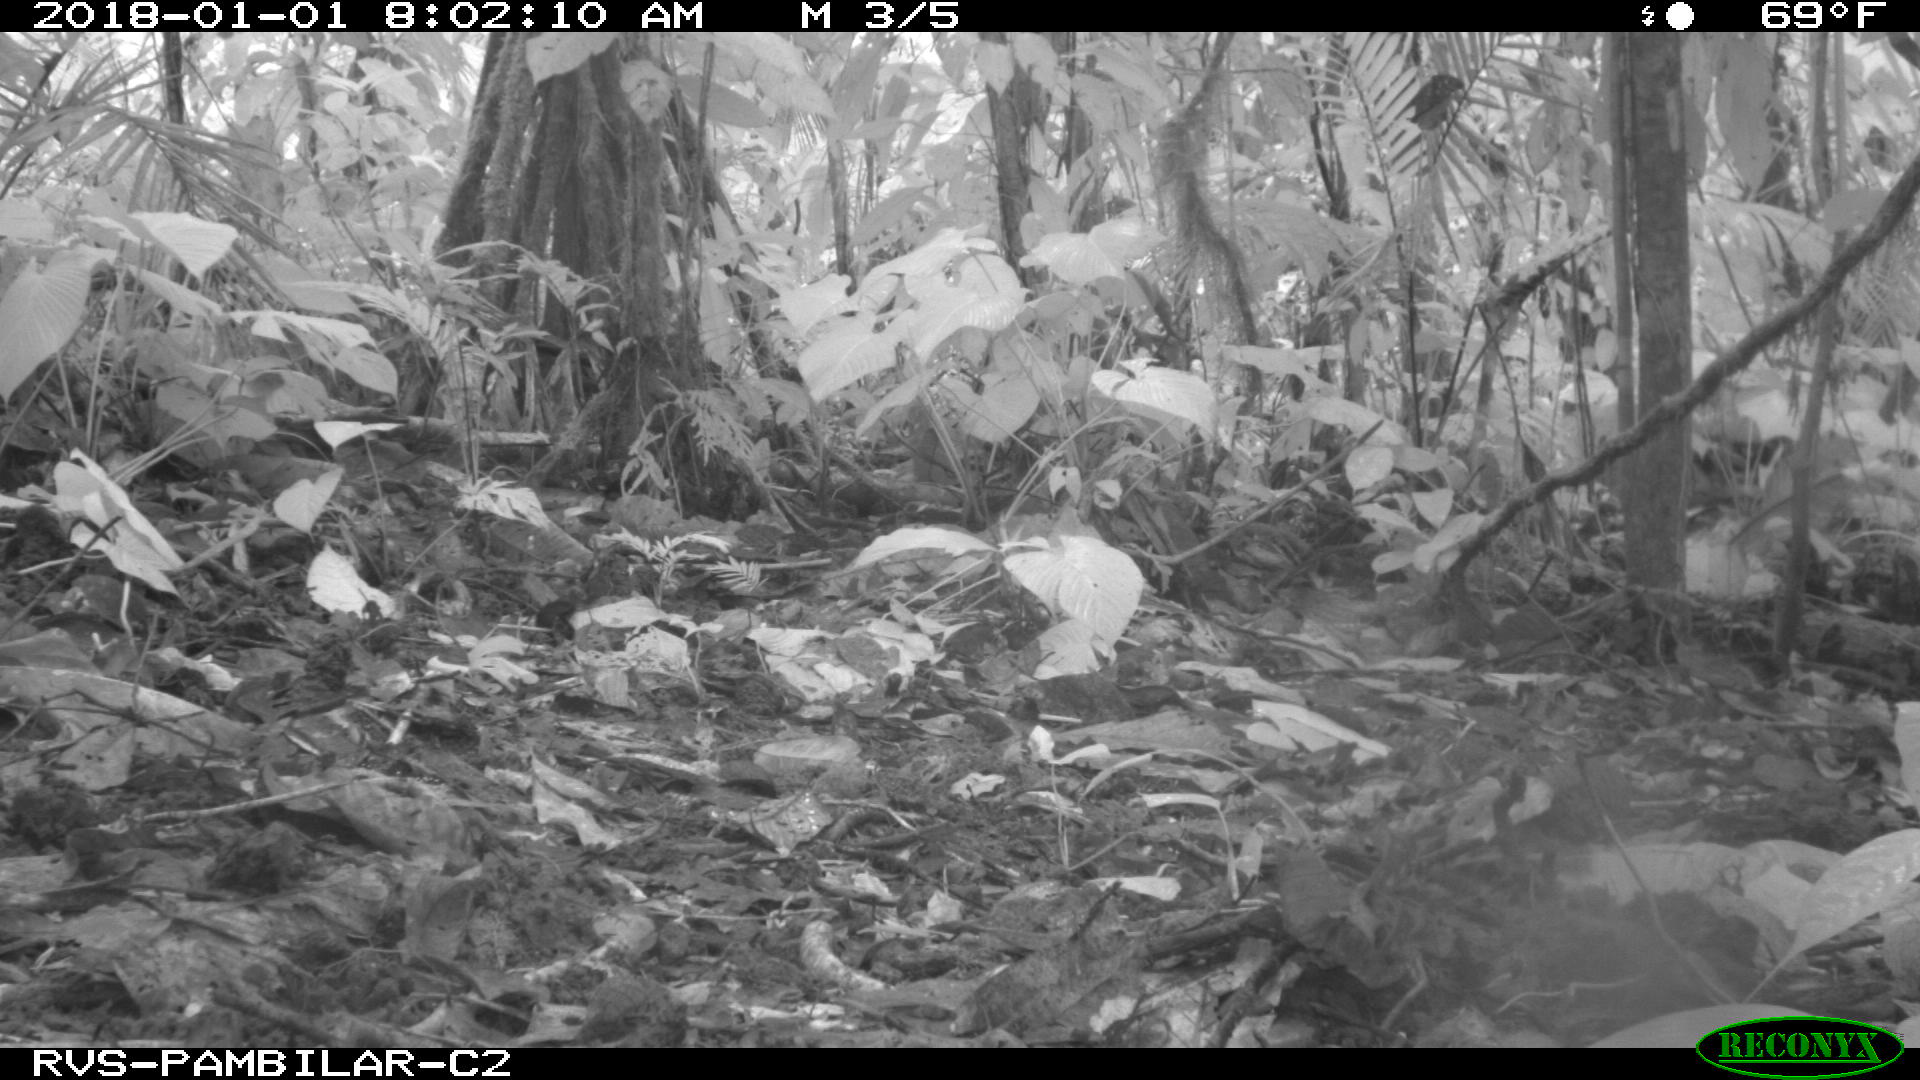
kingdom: Animalia
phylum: Chordata
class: Mammalia
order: Rodentia
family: Dasyproctidae
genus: Dasyprocta
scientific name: Dasyprocta punctata
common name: Central american agouti
